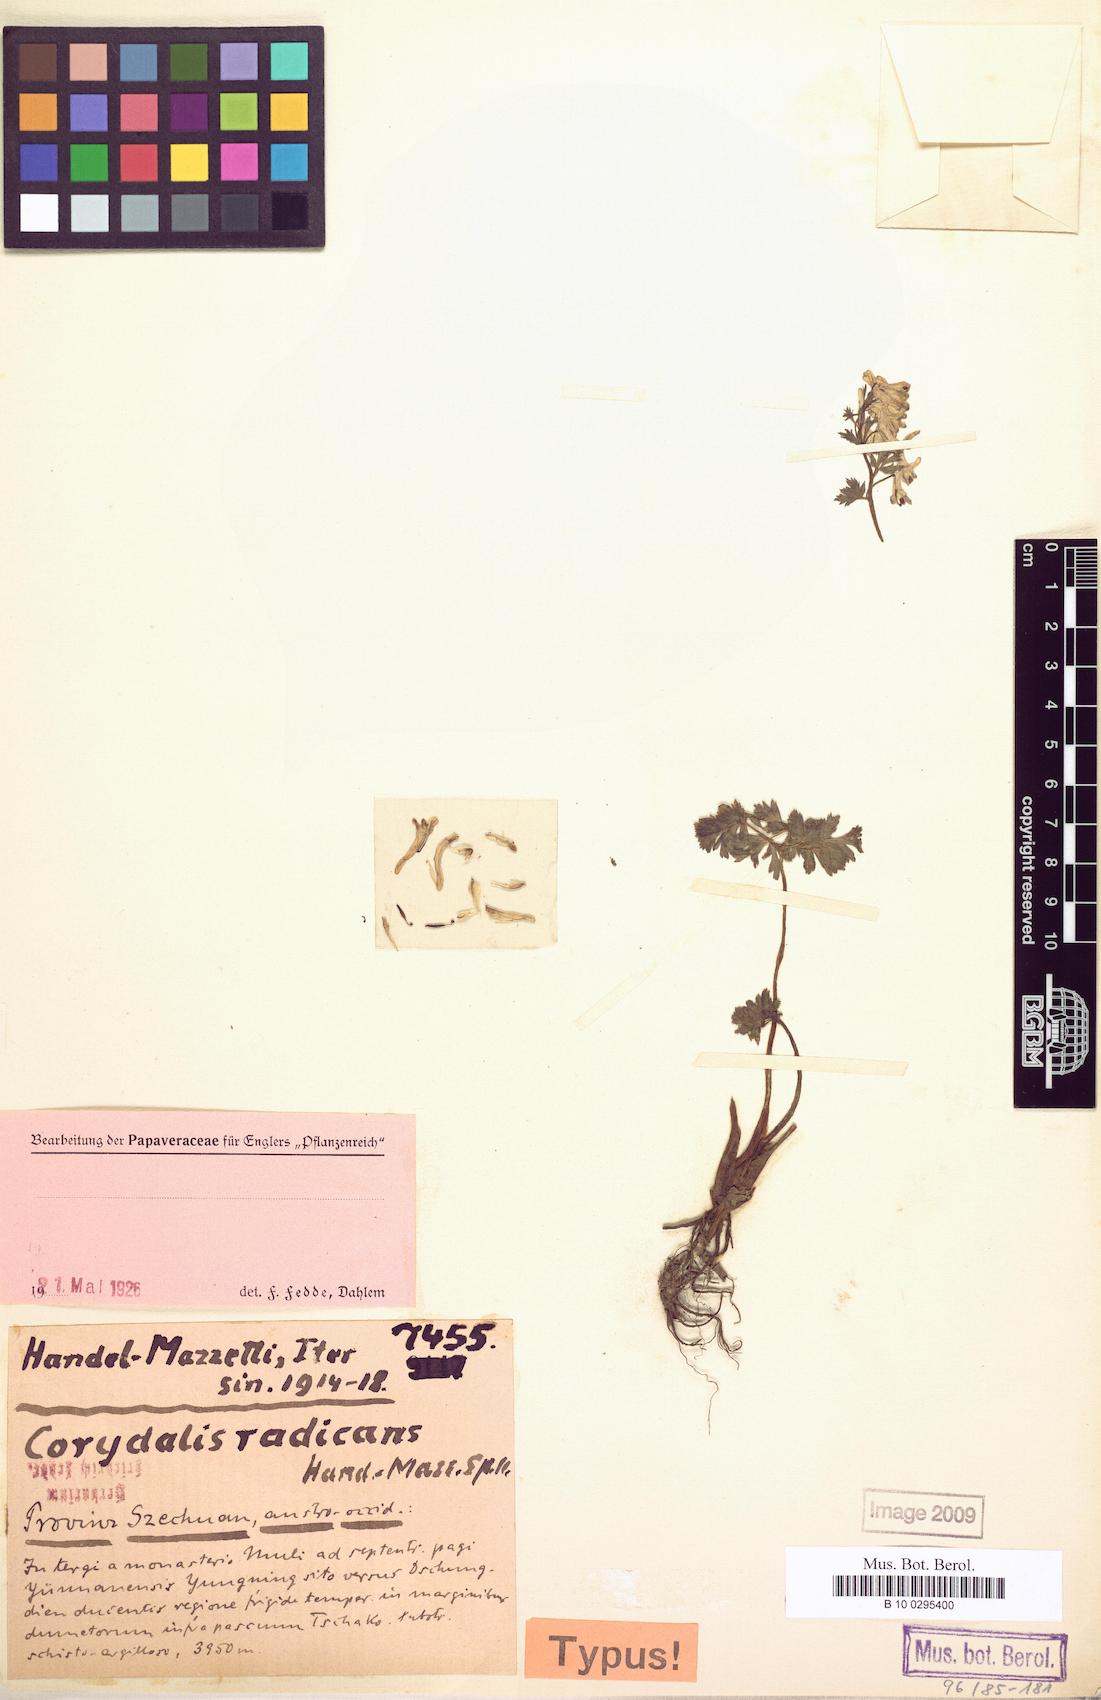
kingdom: Plantae
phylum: Tracheophyta
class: Magnoliopsida
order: Ranunculales
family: Papaveraceae
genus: Corydalis
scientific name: Corydalis radicans
